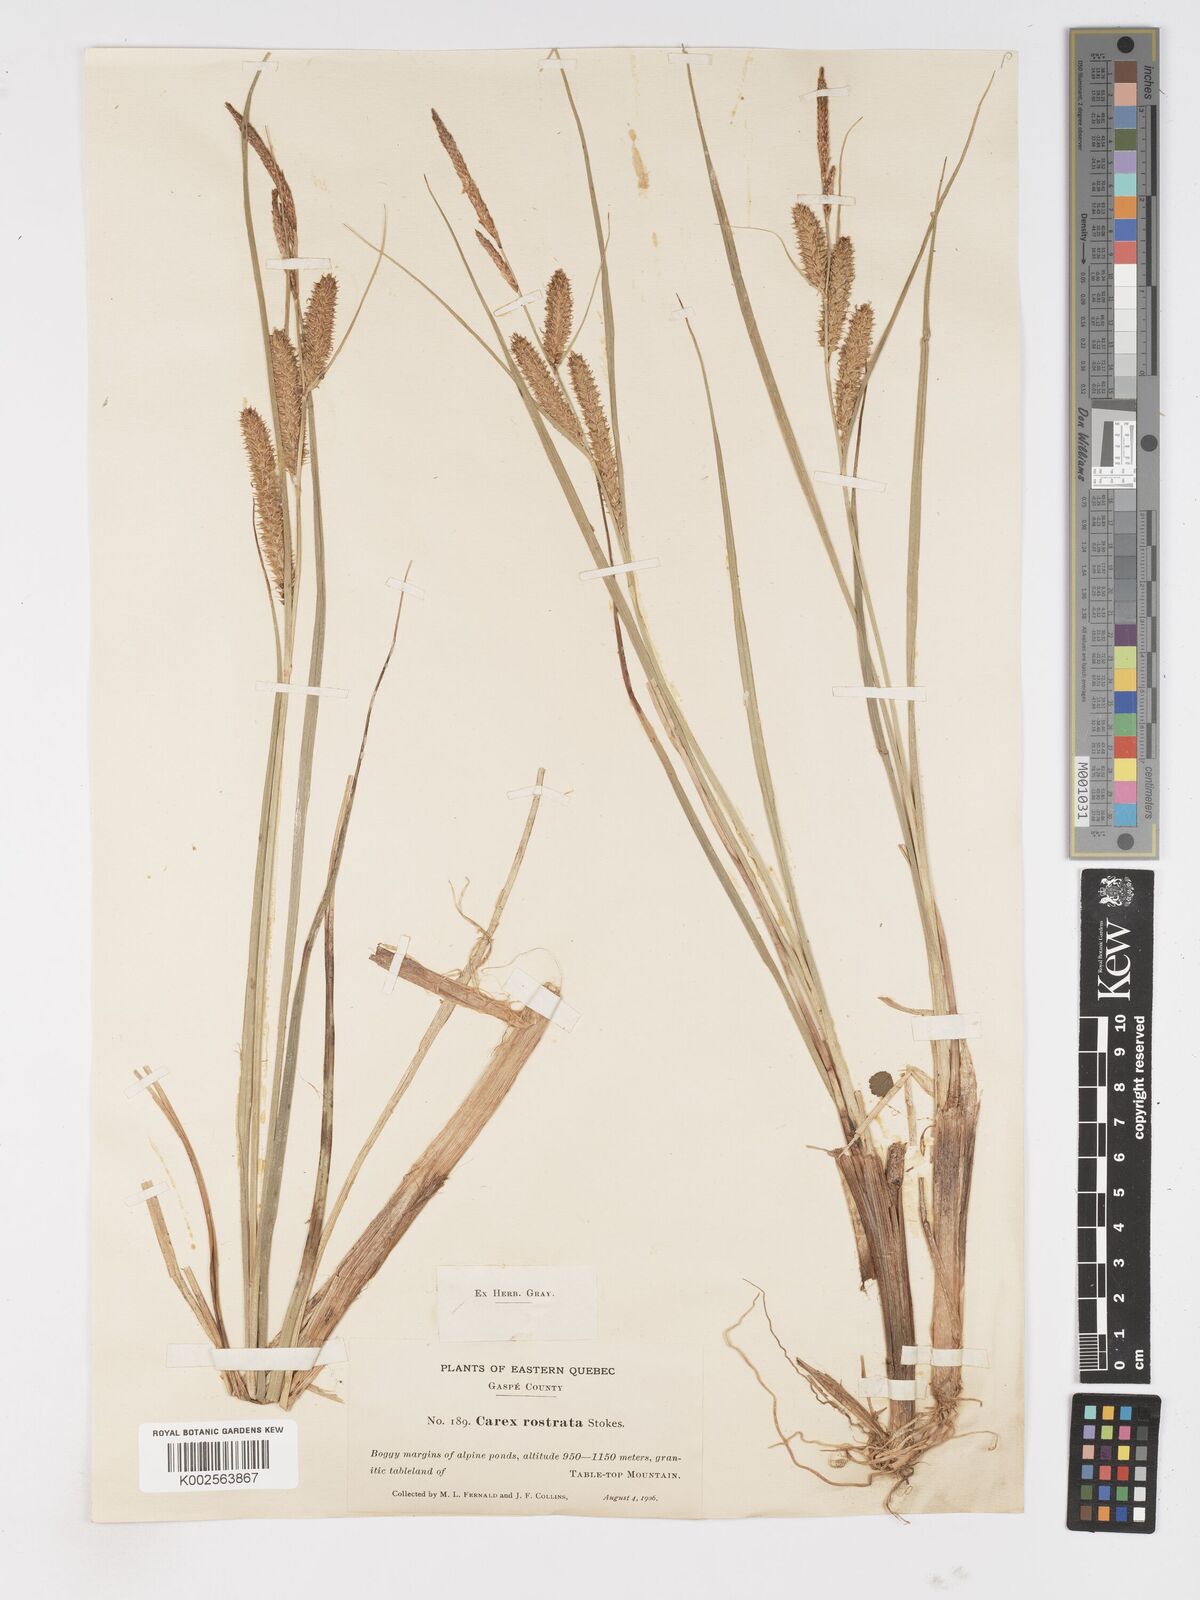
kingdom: Plantae
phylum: Tracheophyta
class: Liliopsida
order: Poales
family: Cyperaceae
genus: Carex
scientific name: Carex rostrata
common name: Bottle sedge
